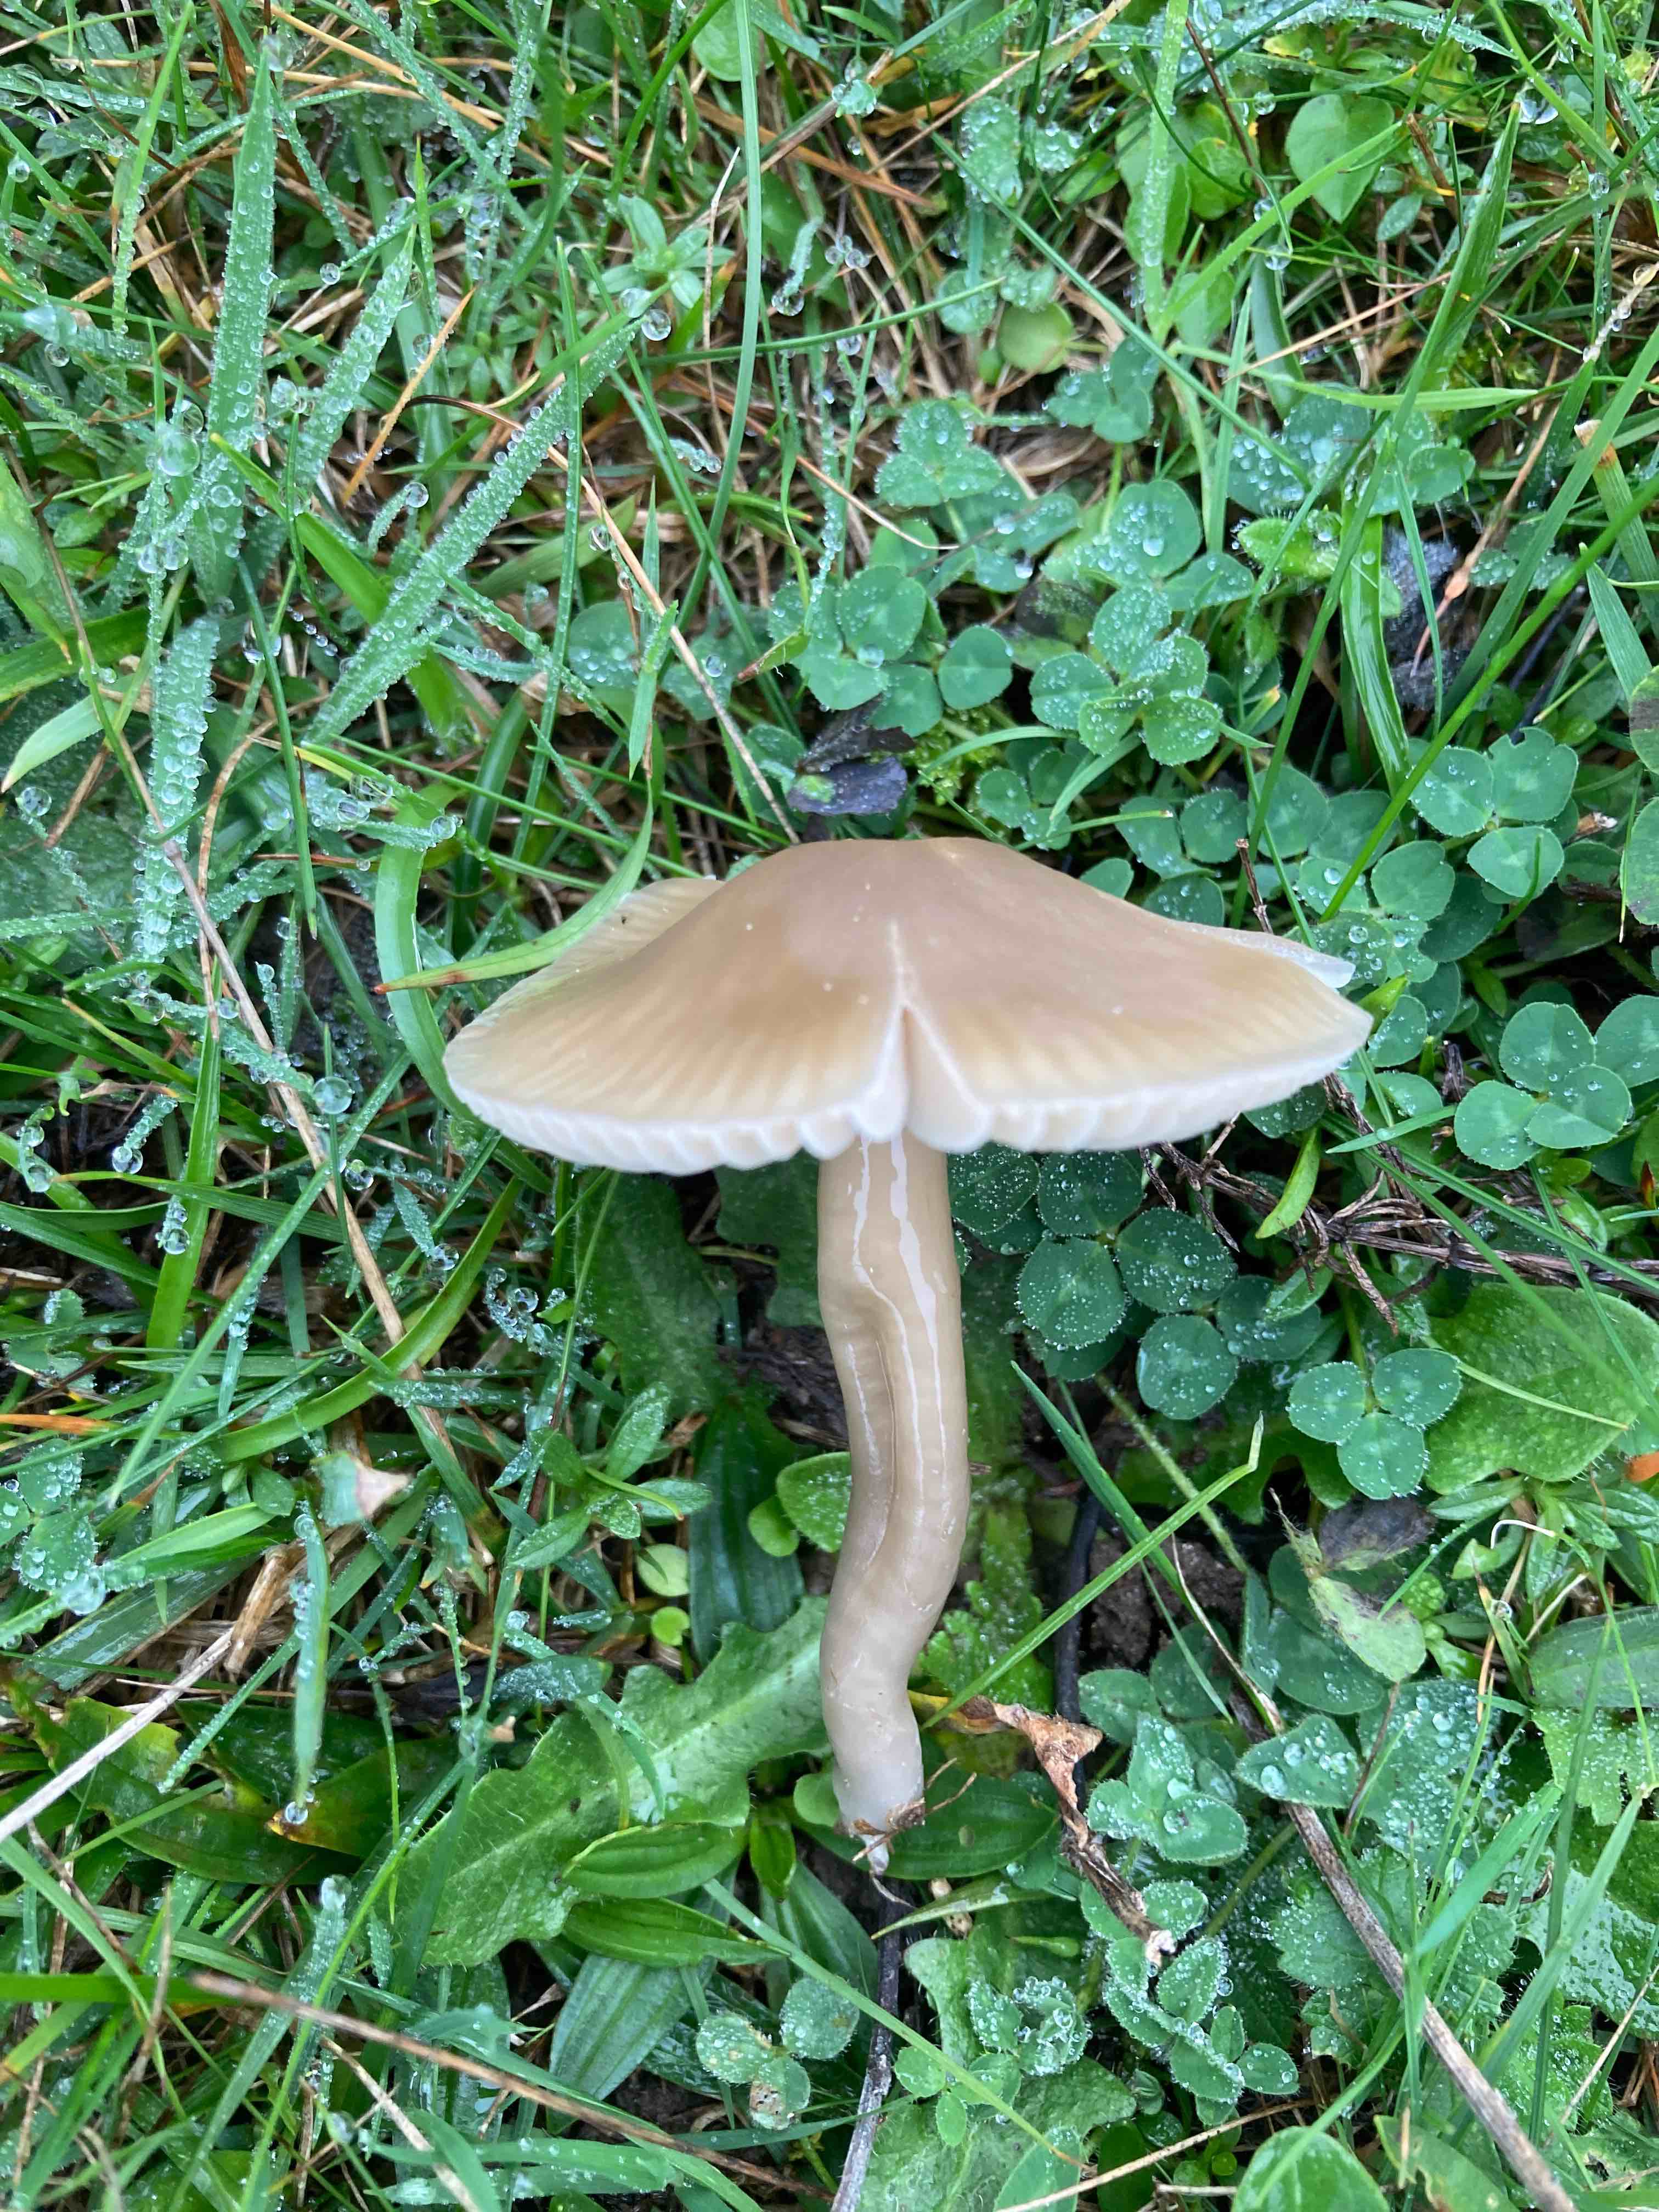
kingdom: Fungi
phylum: Basidiomycota
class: Agaricomycetes
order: Agaricales
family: Hygrophoraceae
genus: Gliophorus
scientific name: Gliophorus irrigatus
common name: slimet vokshat
